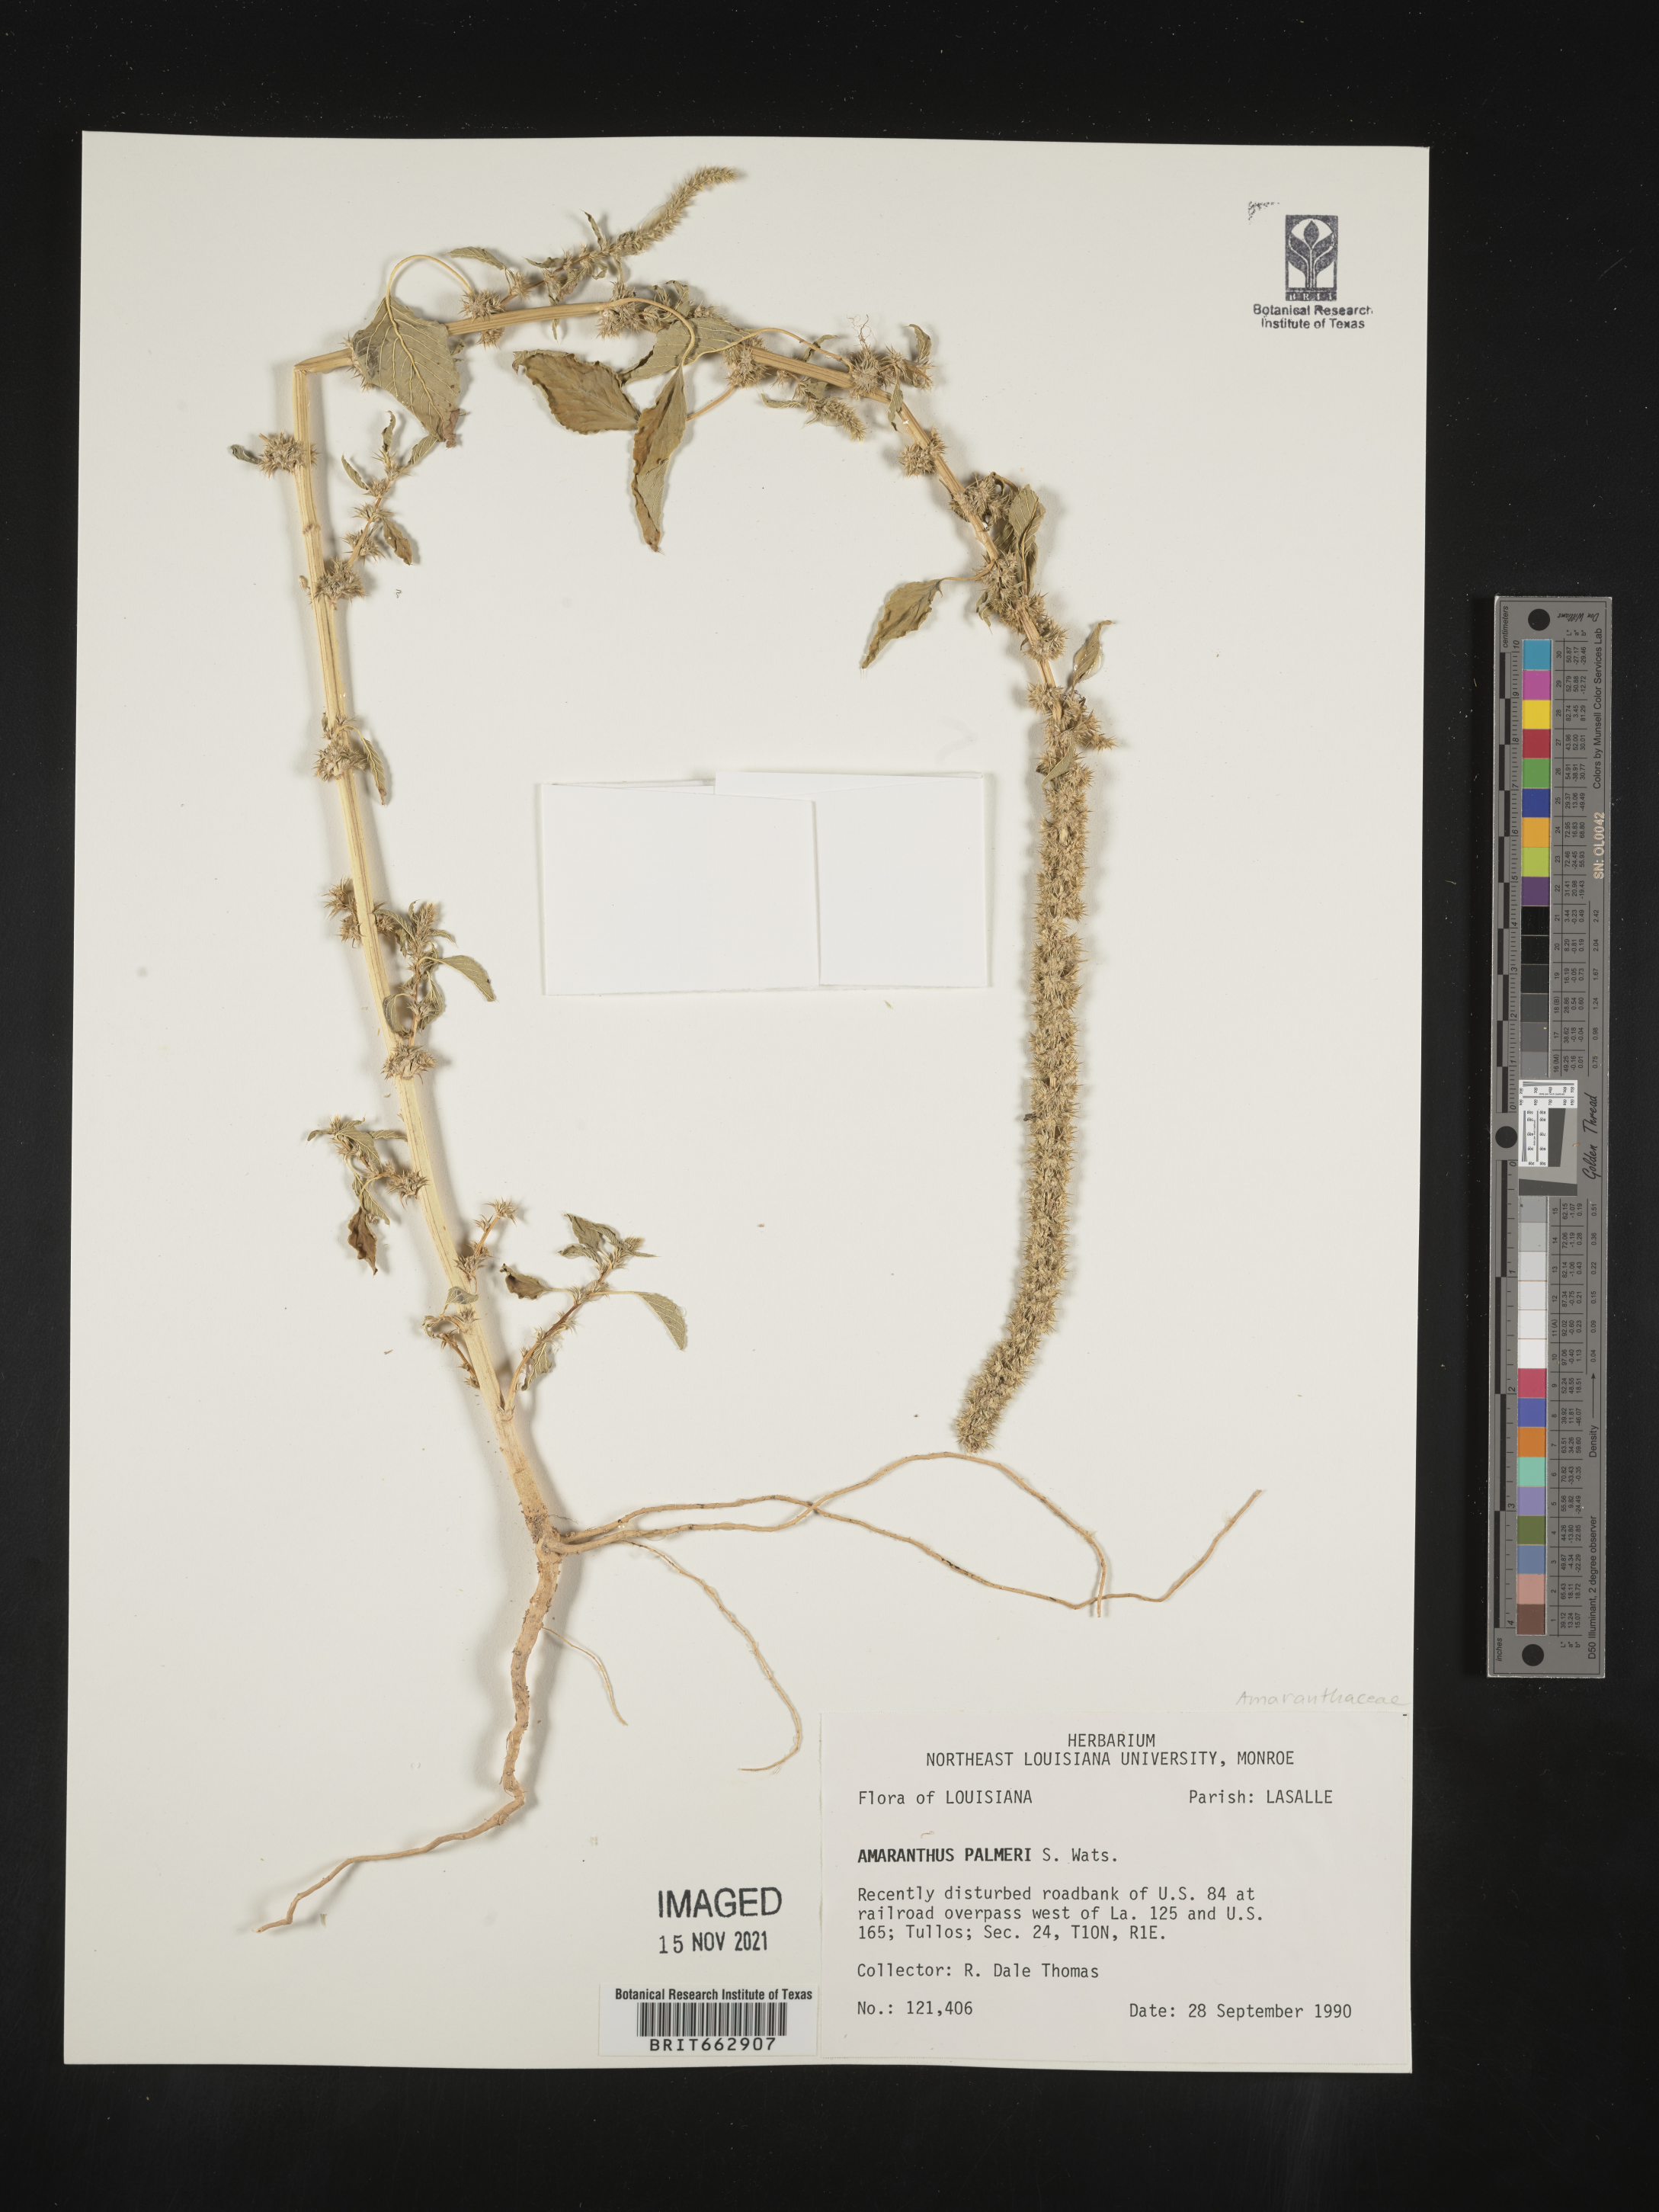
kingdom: Plantae
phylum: Tracheophyta
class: Magnoliopsida
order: Caryophyllales
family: Amaranthaceae
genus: Amaranthus
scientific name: Amaranthus palmeri
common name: Dioecious amaranth
